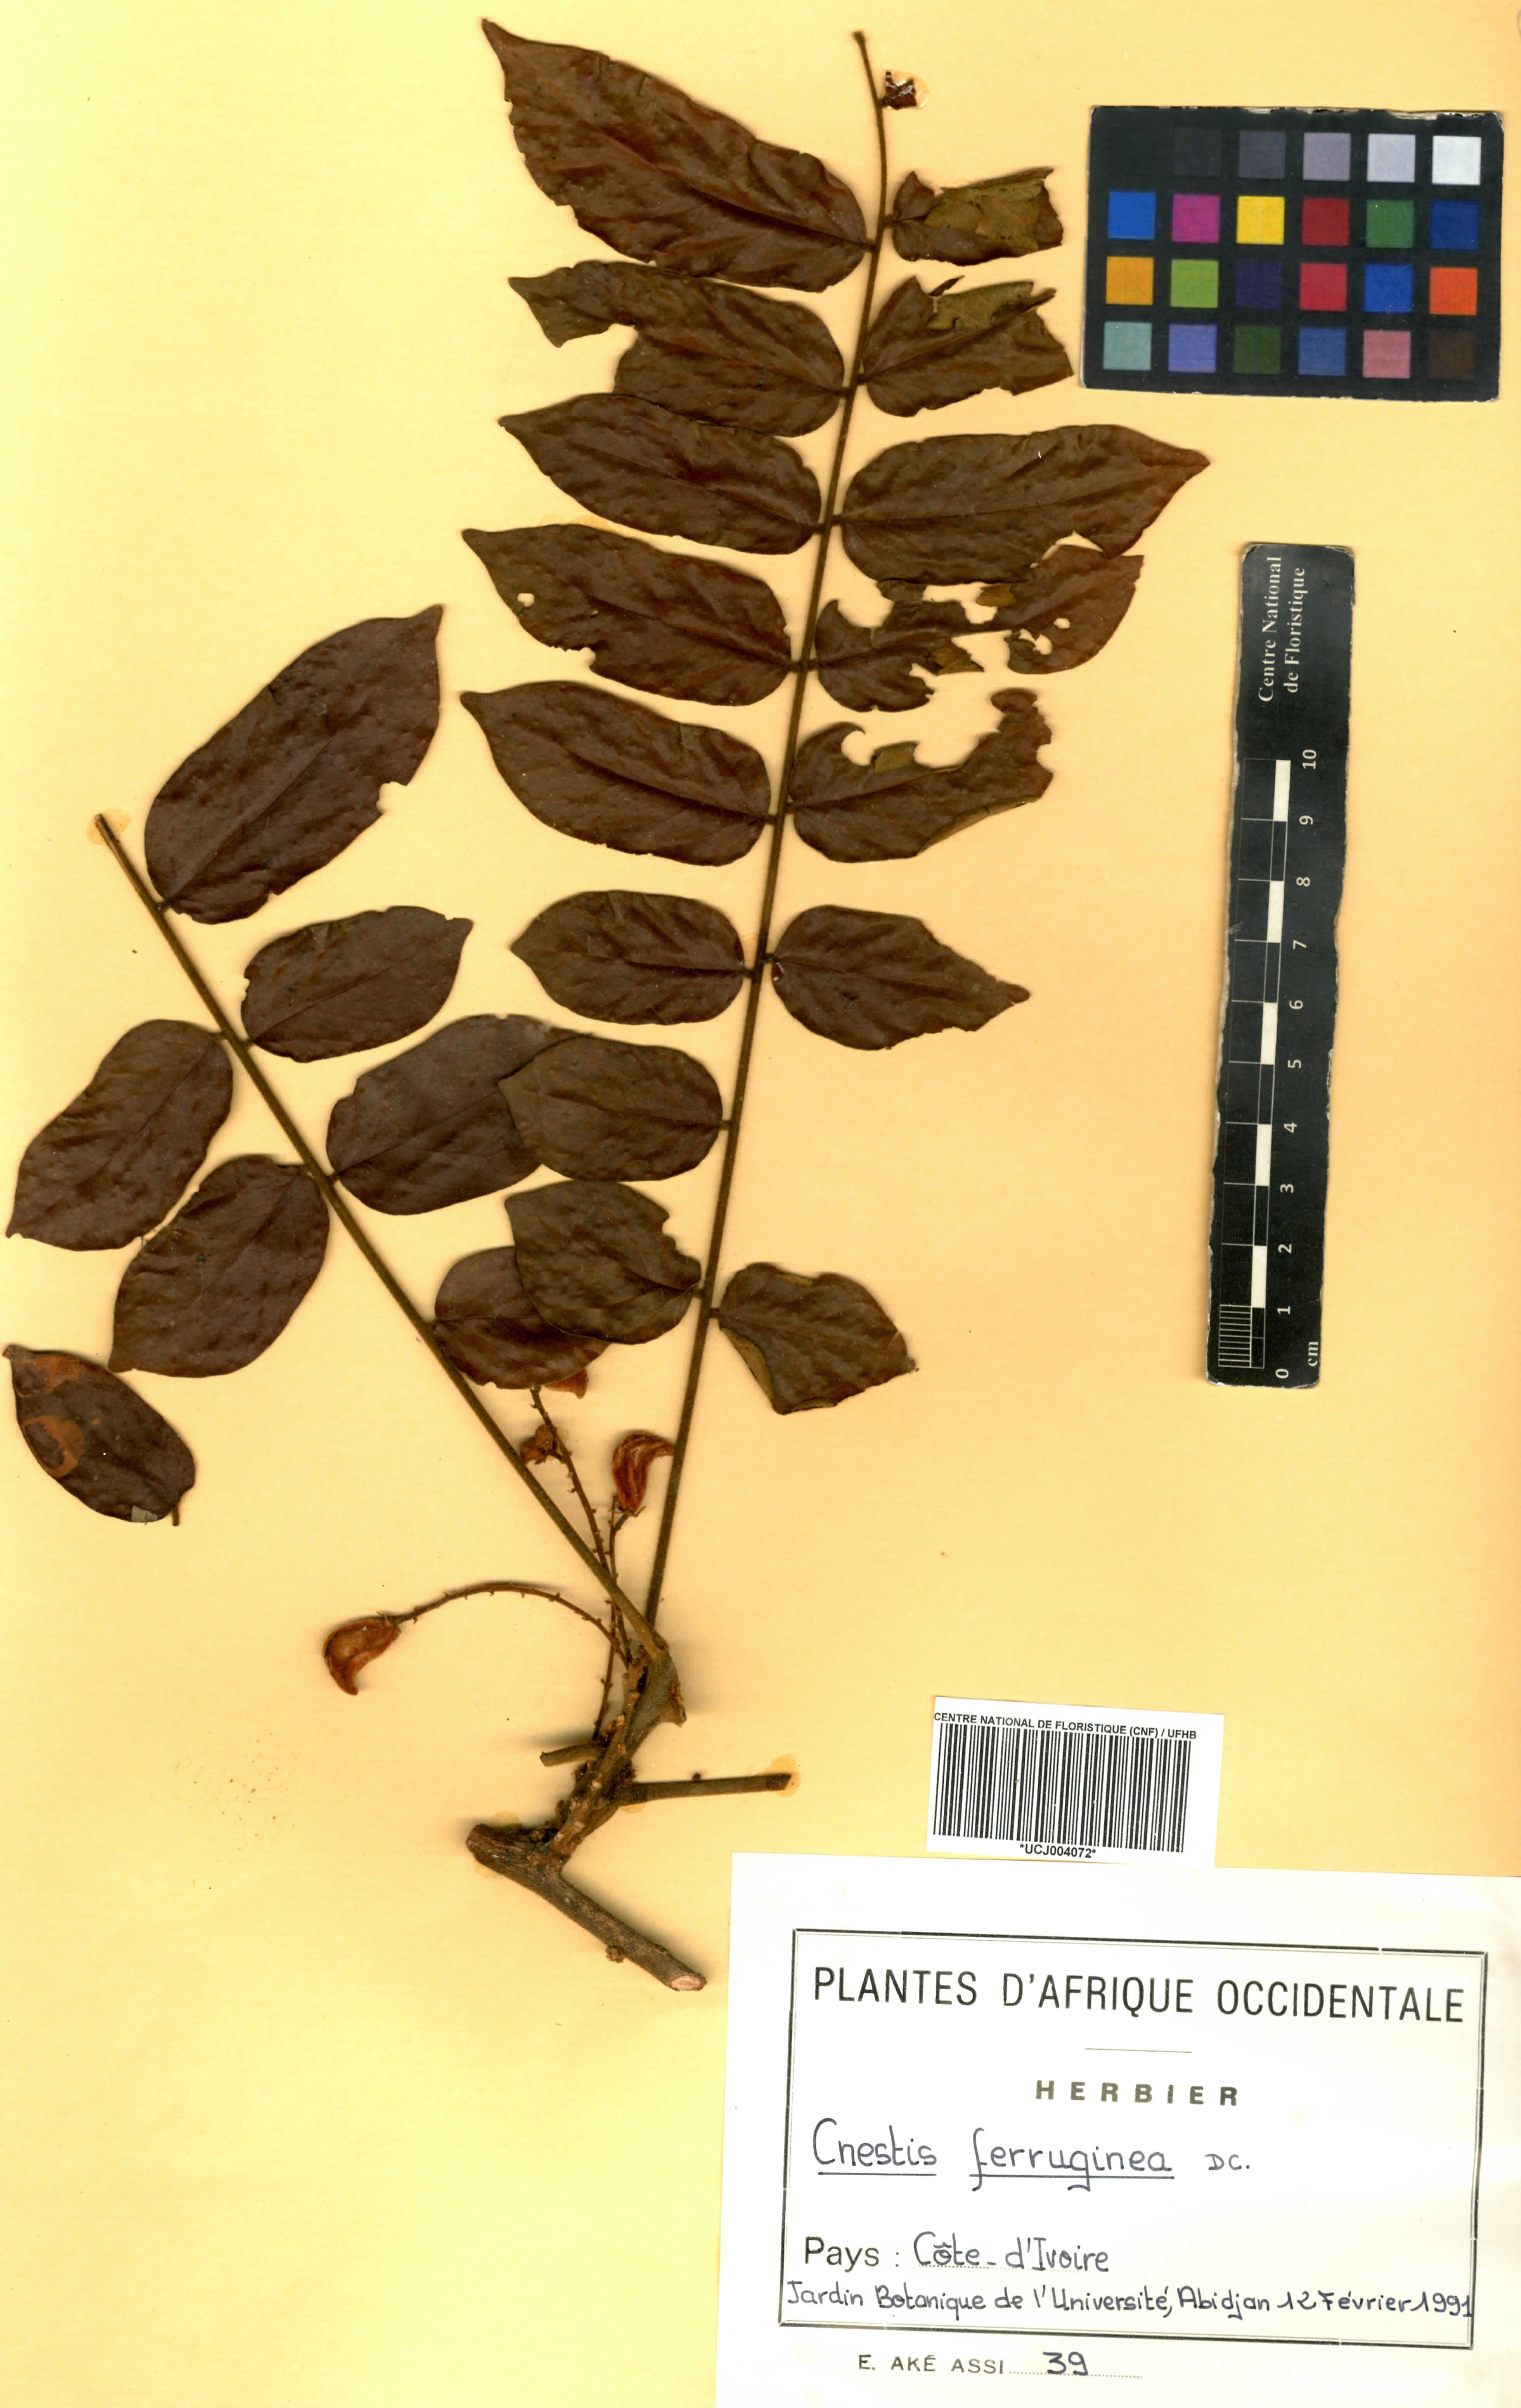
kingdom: Plantae
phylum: Tracheophyta
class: Magnoliopsida
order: Oxalidales
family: Connaraceae
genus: Cnestis
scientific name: Cnestis ferruginea
